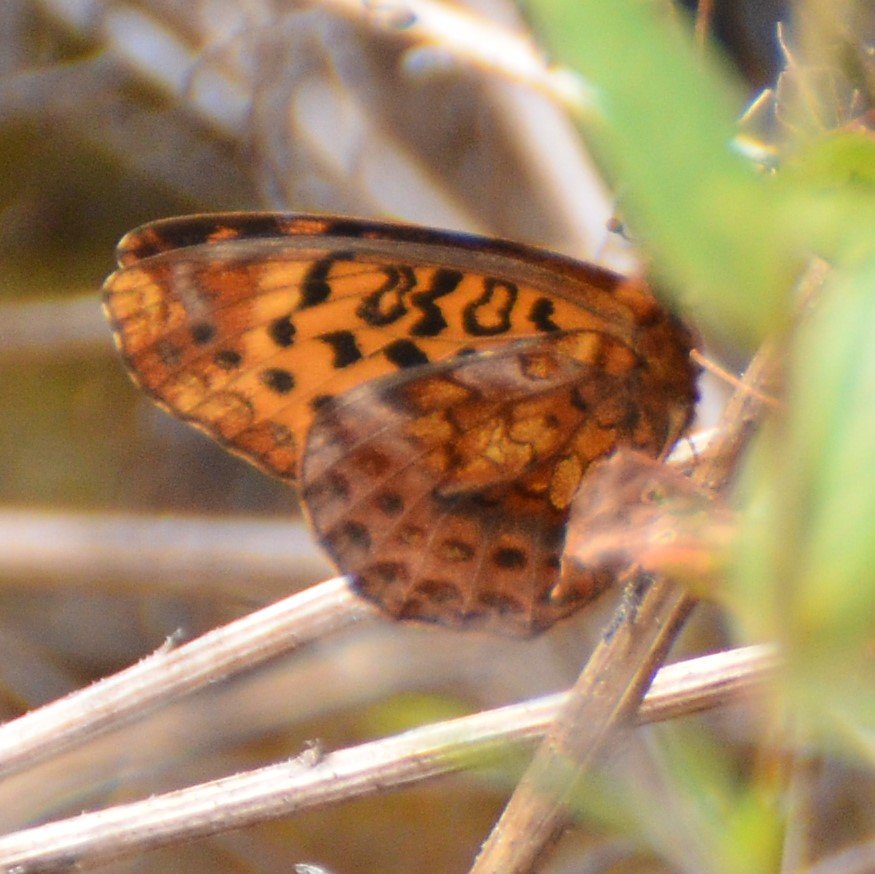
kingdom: Animalia
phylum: Arthropoda
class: Insecta
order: Lepidoptera
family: Nymphalidae
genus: Clossiana
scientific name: Clossiana toddi
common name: Meadow Fritillary
